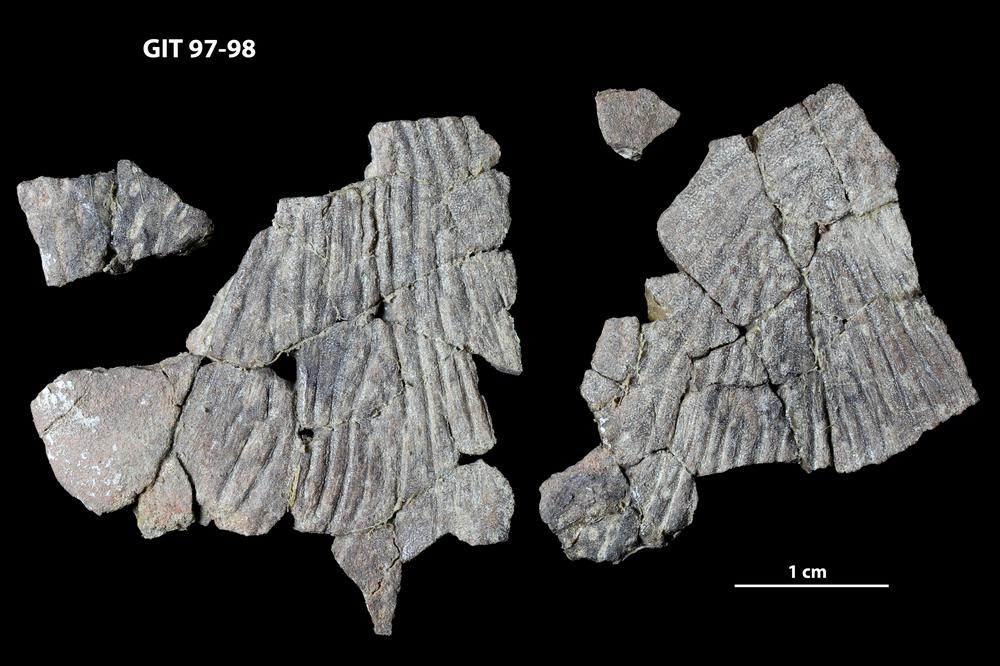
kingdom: Animalia
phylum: Chordata
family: Holonematidae
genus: Holonema
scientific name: Holonema
